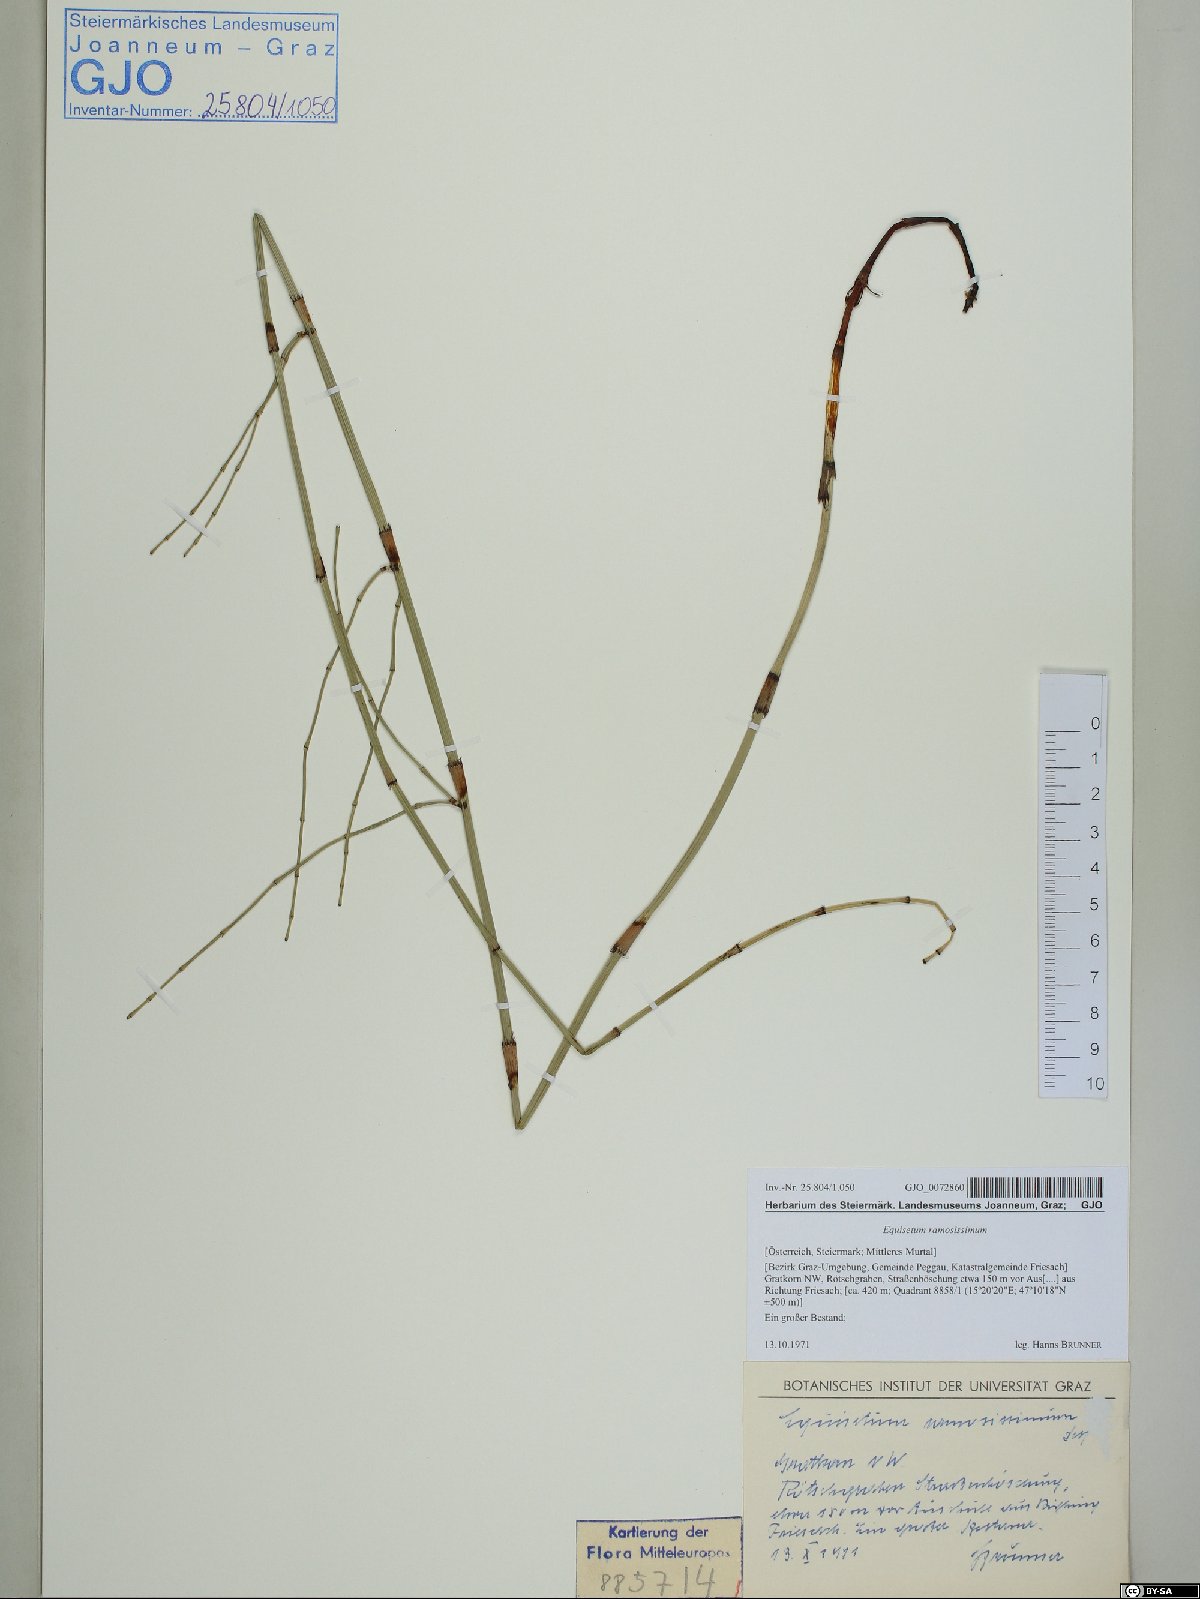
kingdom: Plantae
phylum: Tracheophyta
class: Polypodiopsida
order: Equisetales
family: Equisetaceae
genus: Equisetum
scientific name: Equisetum ramosissimum
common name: Branched horsetail
